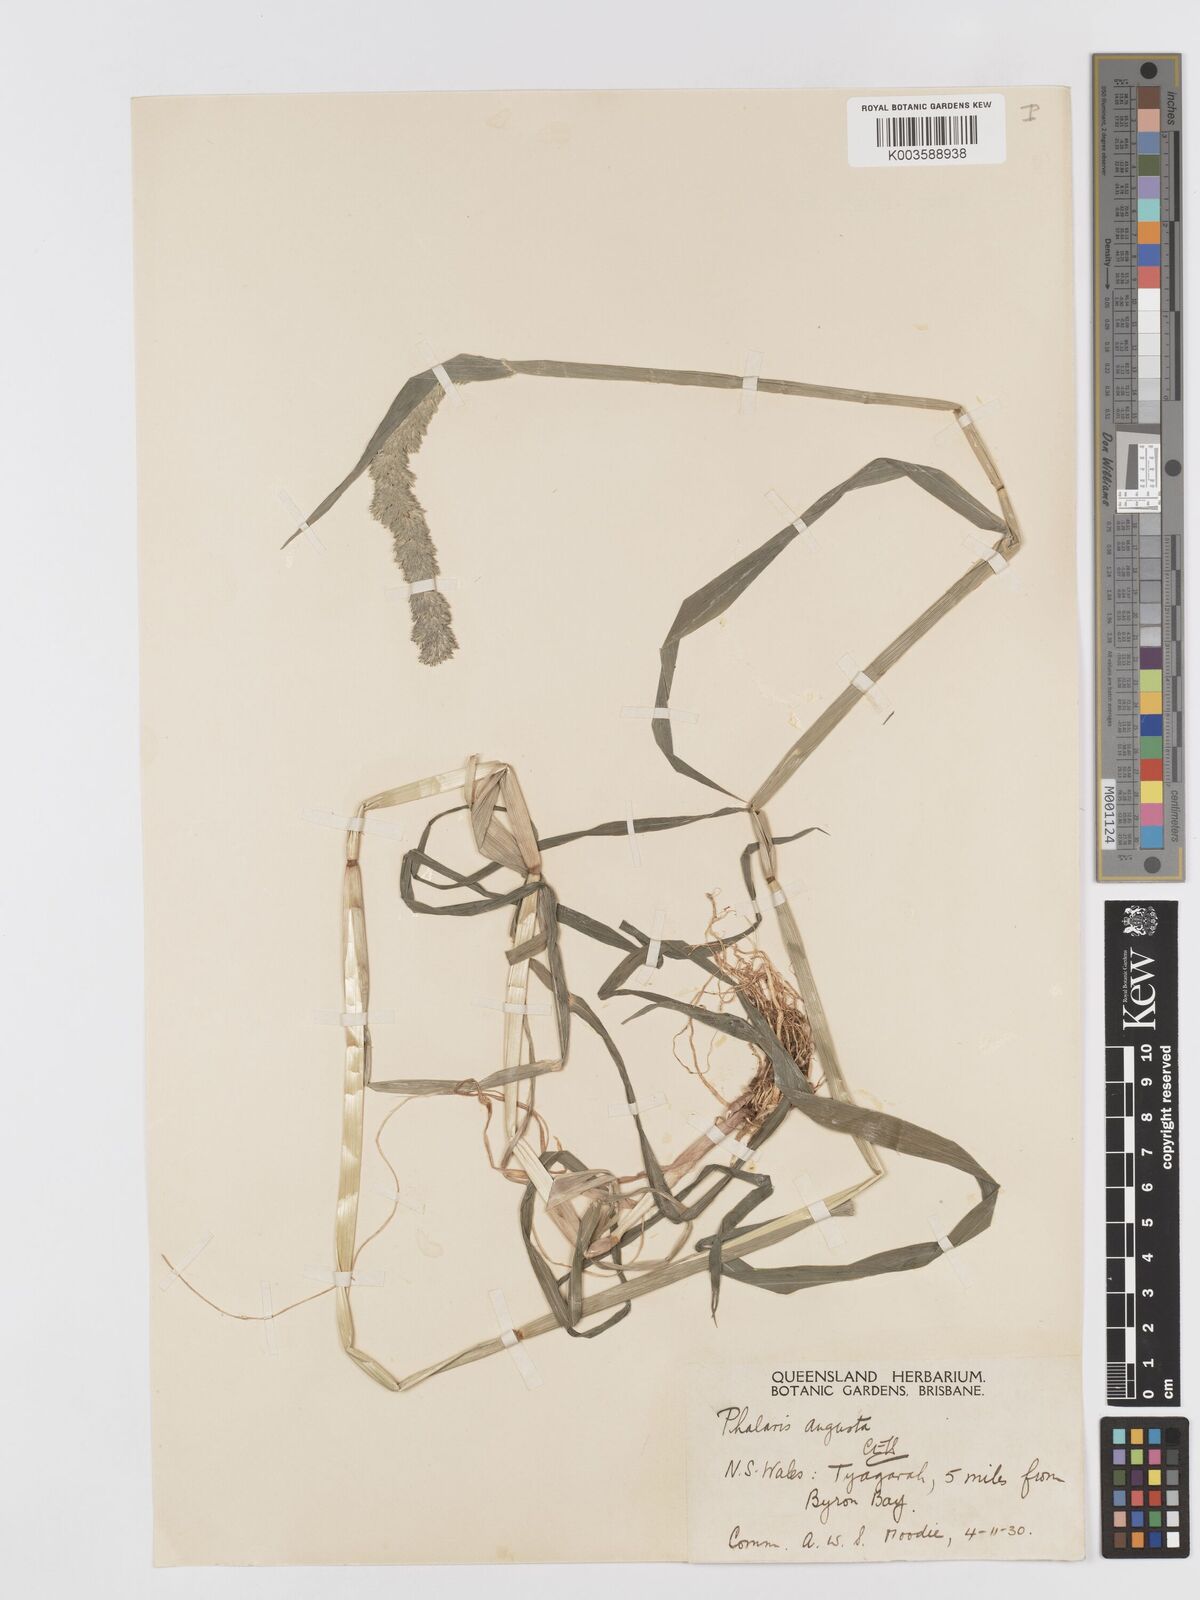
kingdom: Plantae
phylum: Tracheophyta
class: Liliopsida
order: Poales
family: Poaceae
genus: Phalaris
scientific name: Phalaris angusta
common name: Narrow canary grass
